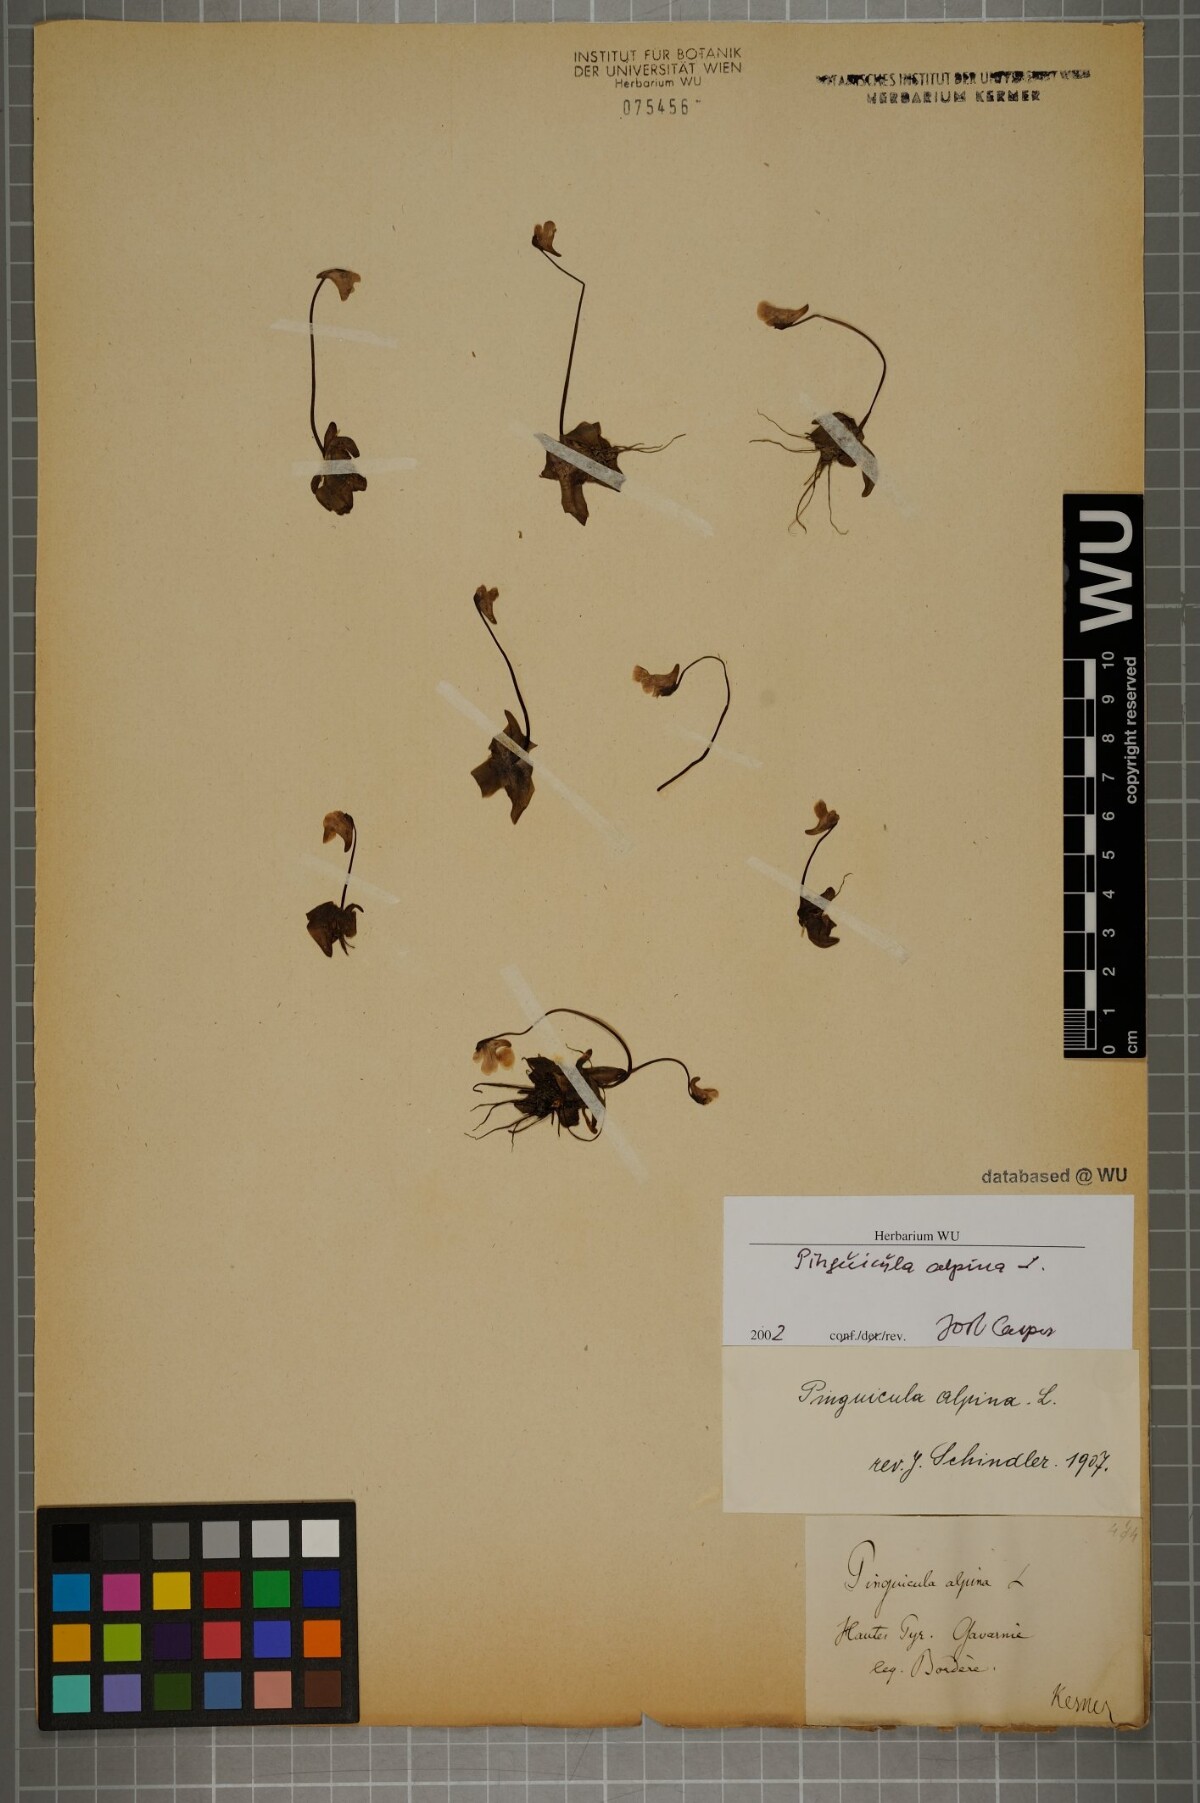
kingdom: Plantae
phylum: Tracheophyta
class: Magnoliopsida
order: Lamiales
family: Lentibulariaceae
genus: Pinguicula
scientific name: Pinguicula alpina
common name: Alpine butterwort
